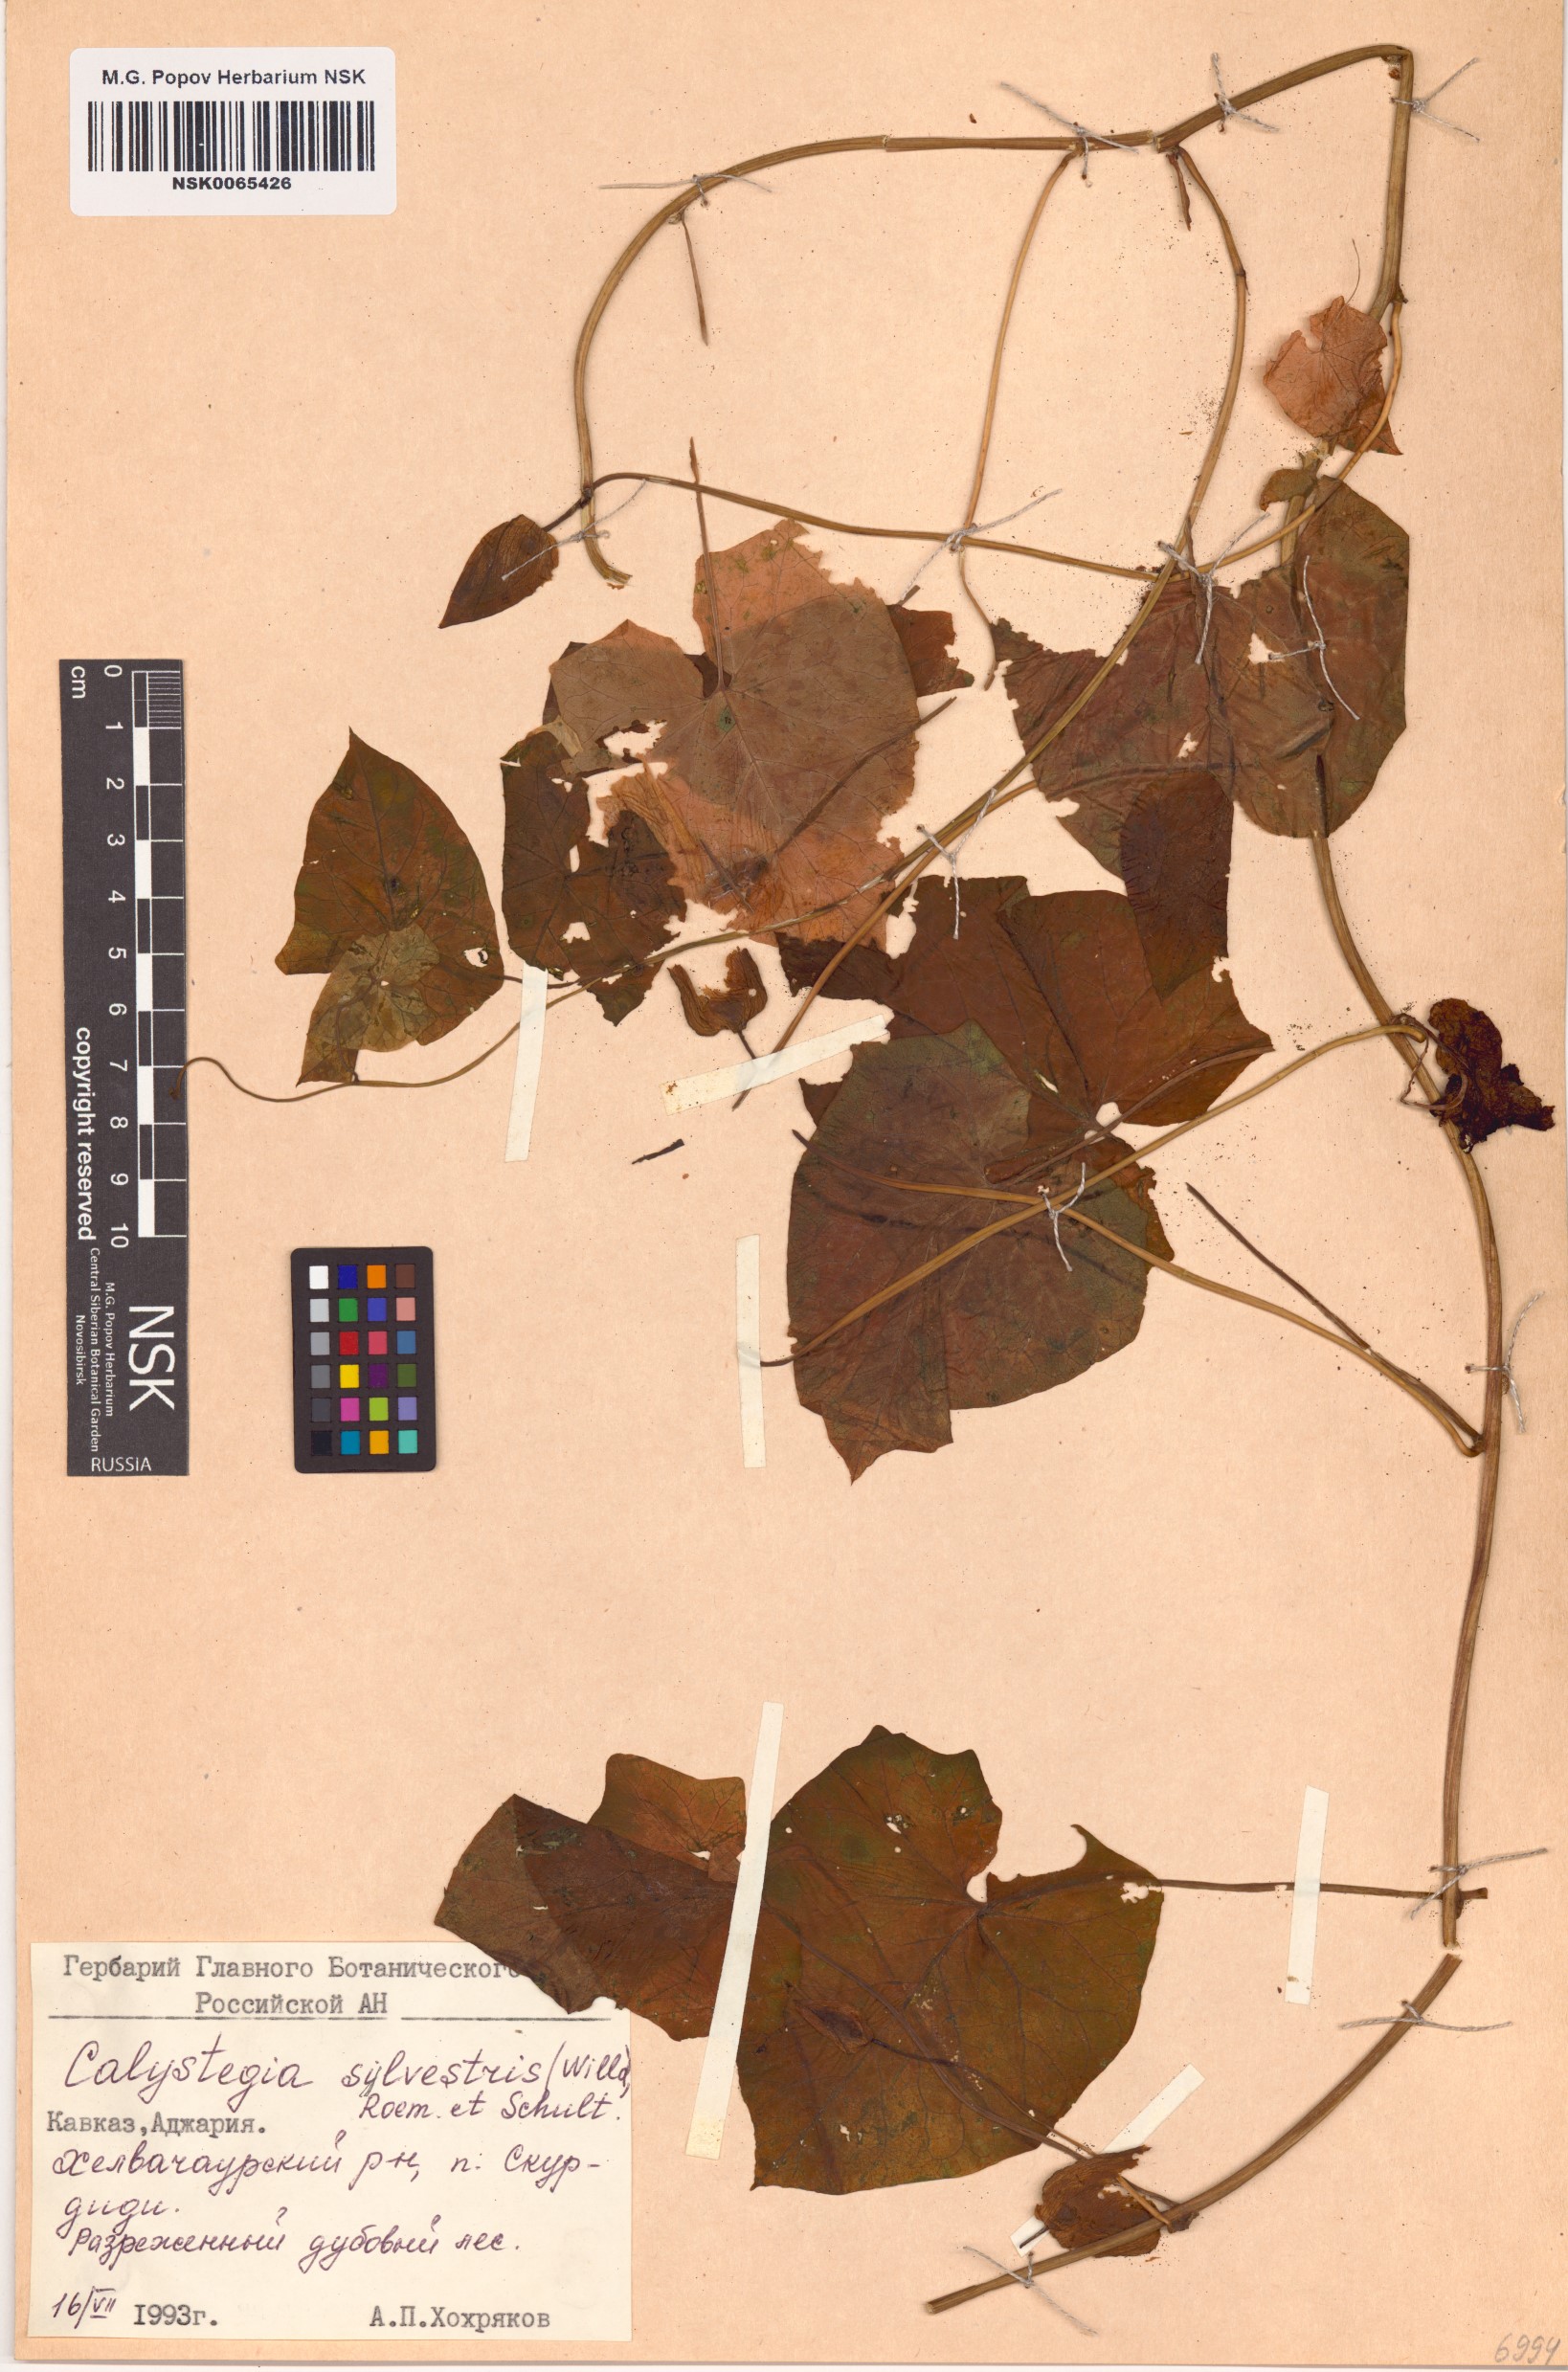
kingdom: Plantae
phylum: Tracheophyta
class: Magnoliopsida
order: Solanales
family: Convolvulaceae
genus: Calystegia
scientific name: Calystegia silvatica
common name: Large bindweed
